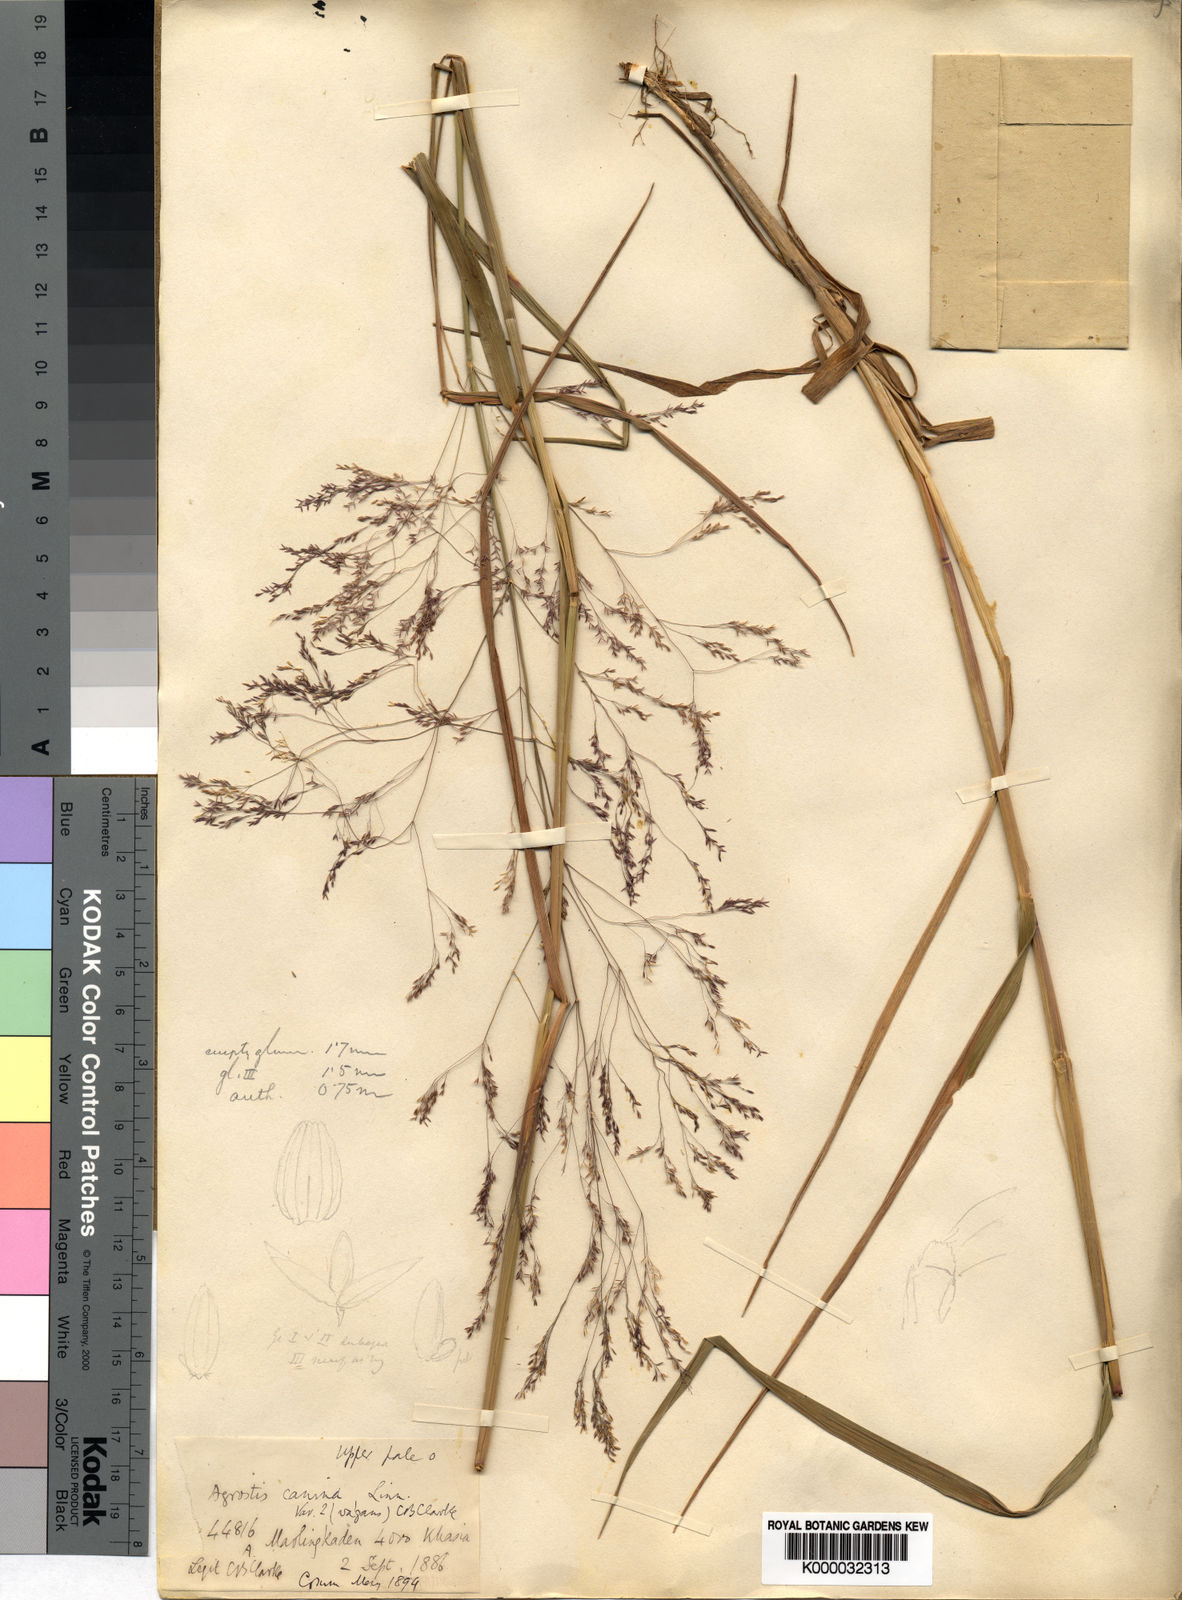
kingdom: Plantae
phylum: Tracheophyta
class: Liliopsida
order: Poales
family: Poaceae
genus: Agrostis
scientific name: Agrostis micrantha
